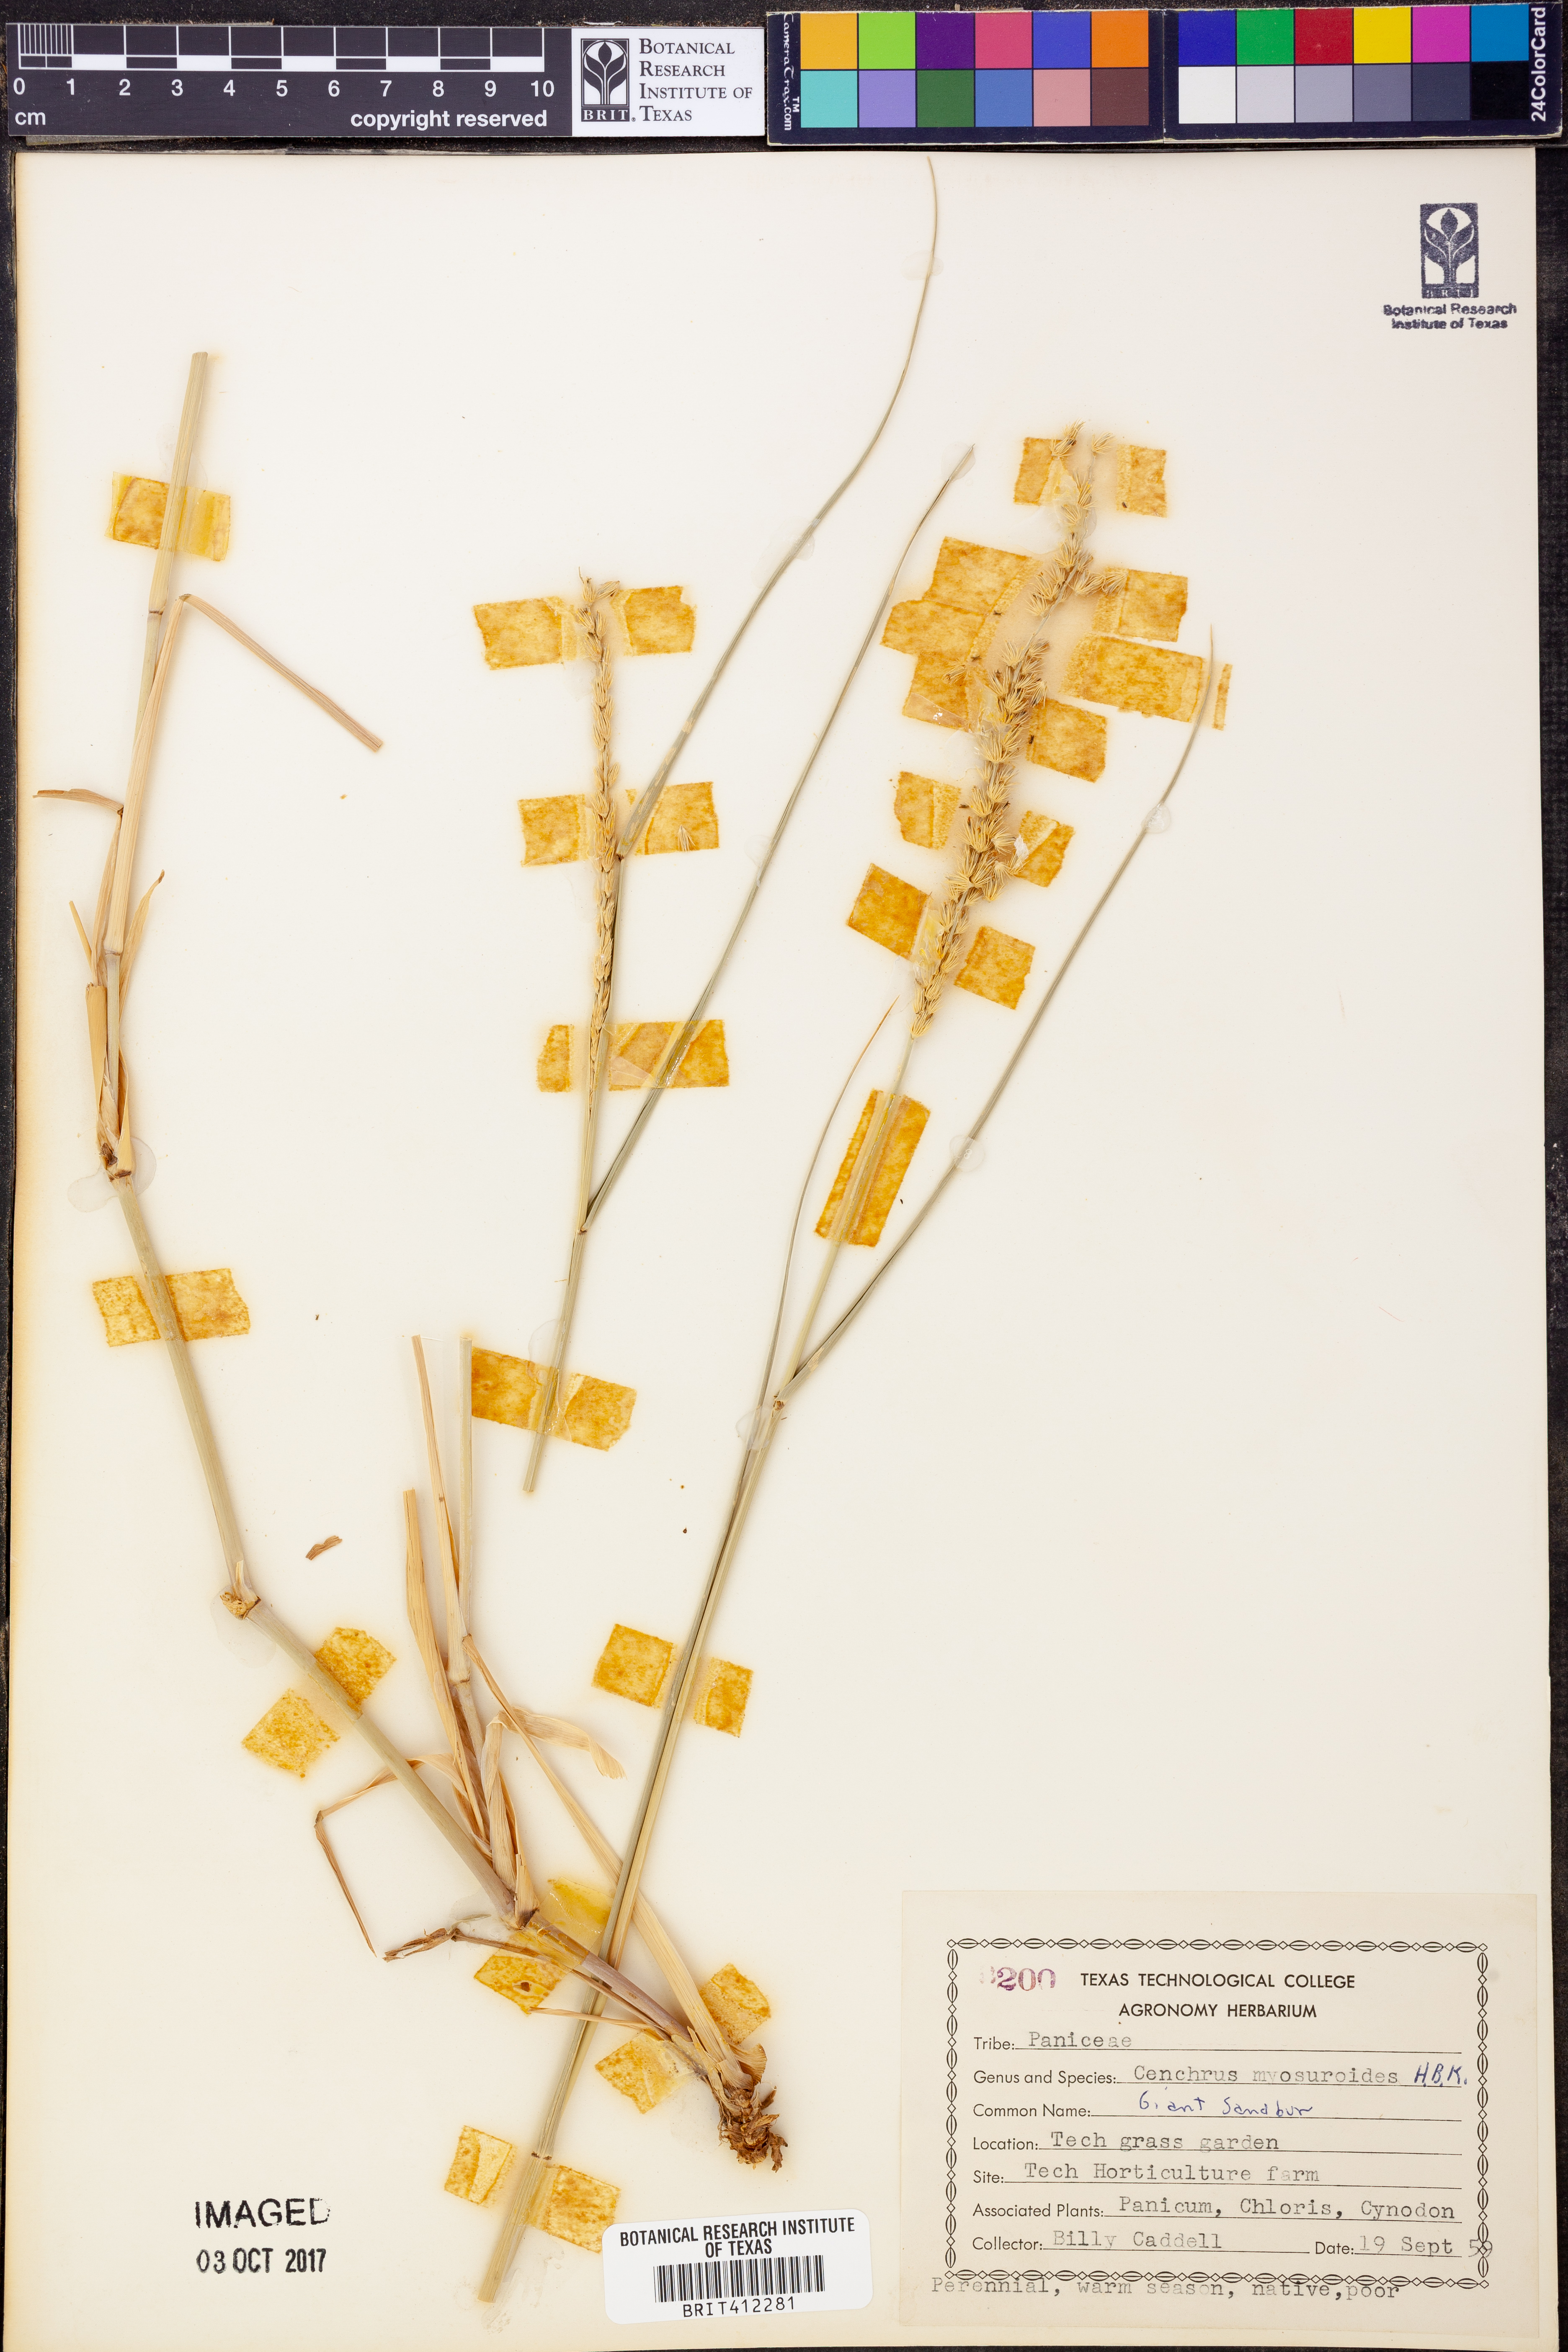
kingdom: Plantae
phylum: Tracheophyta
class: Liliopsida
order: Poales
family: Poaceae
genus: Cenchrus
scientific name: Cenchrus myosuroides
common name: Big sandbur
